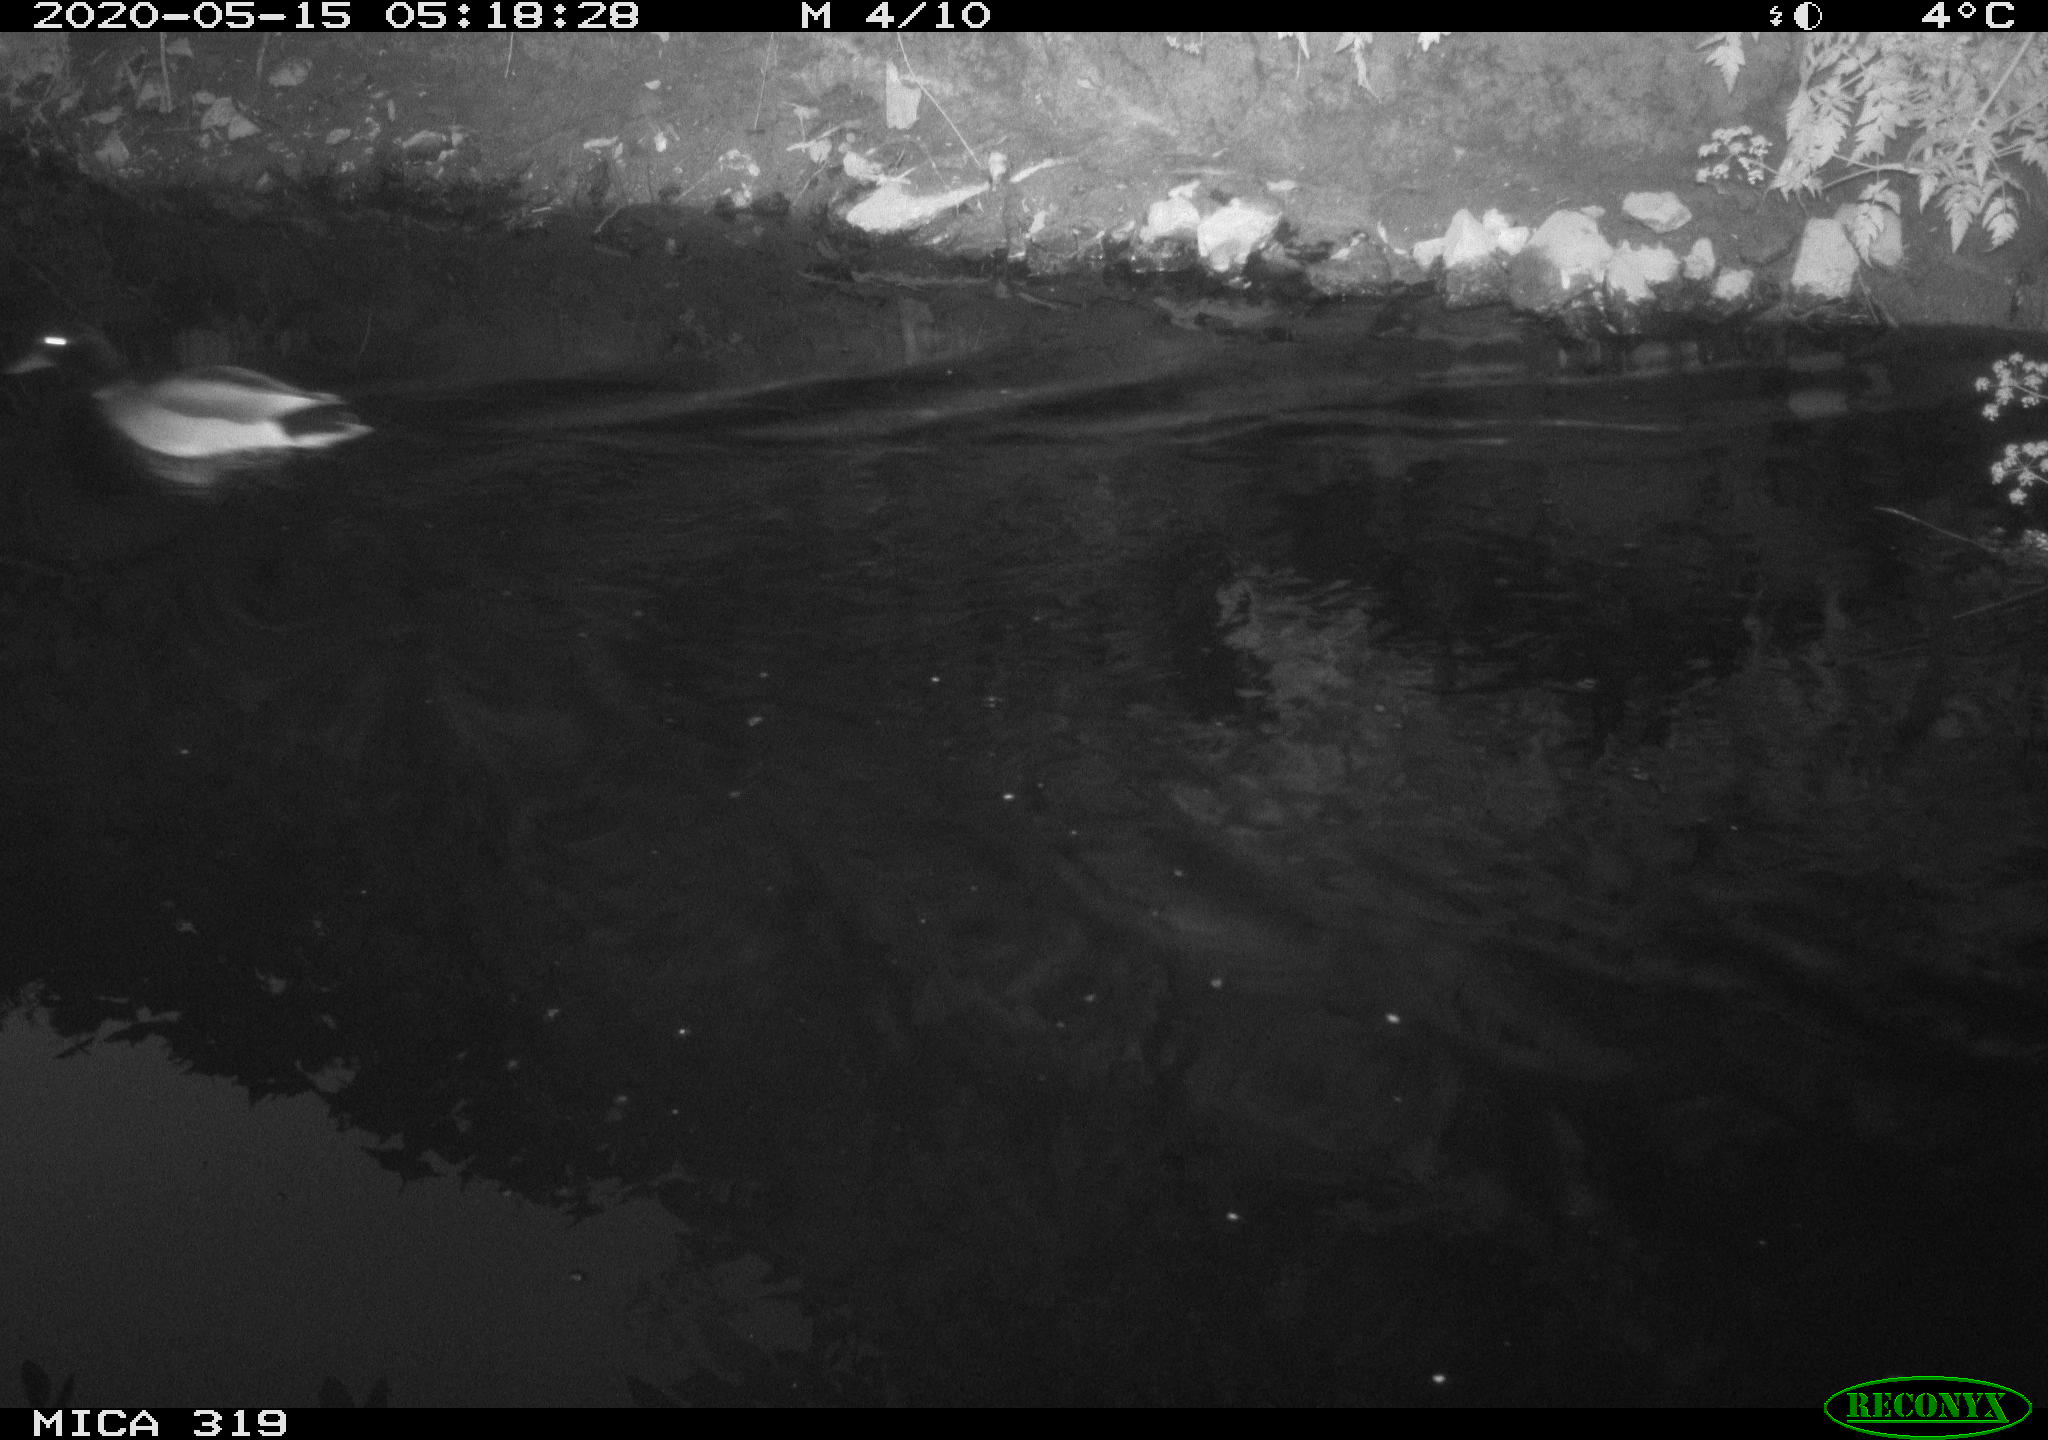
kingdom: Animalia
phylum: Chordata
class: Aves
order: Anseriformes
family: Anatidae
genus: Anas
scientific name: Anas platyrhynchos
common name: Mallard
